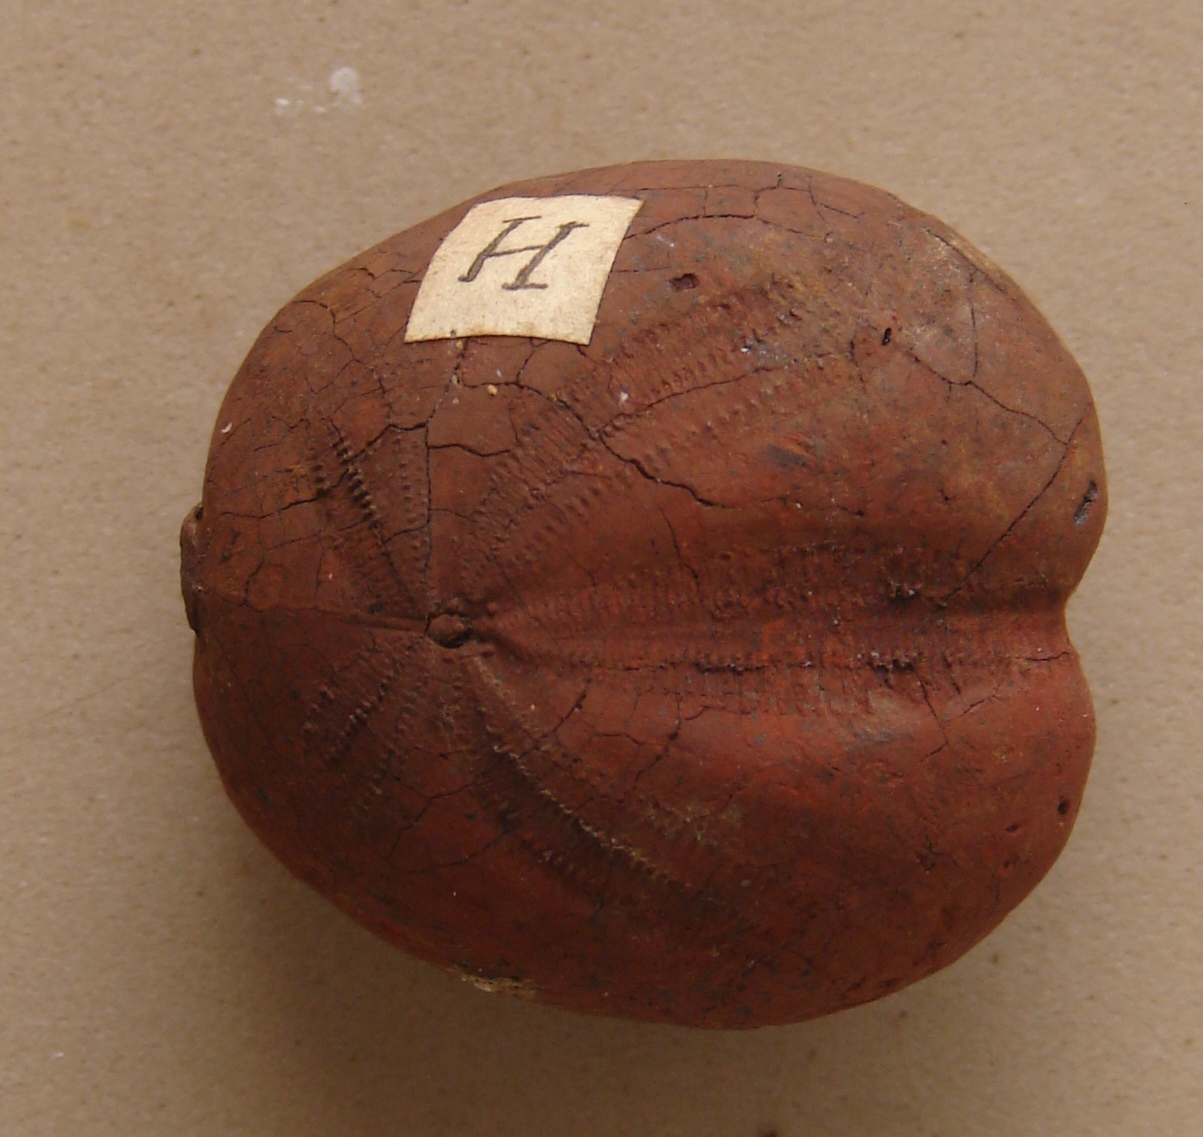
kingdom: Animalia
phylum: Echinodermata
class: Echinoidea
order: Spatangoida
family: Toxasteridae
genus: Heteraster
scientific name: Heteraster oblongus
